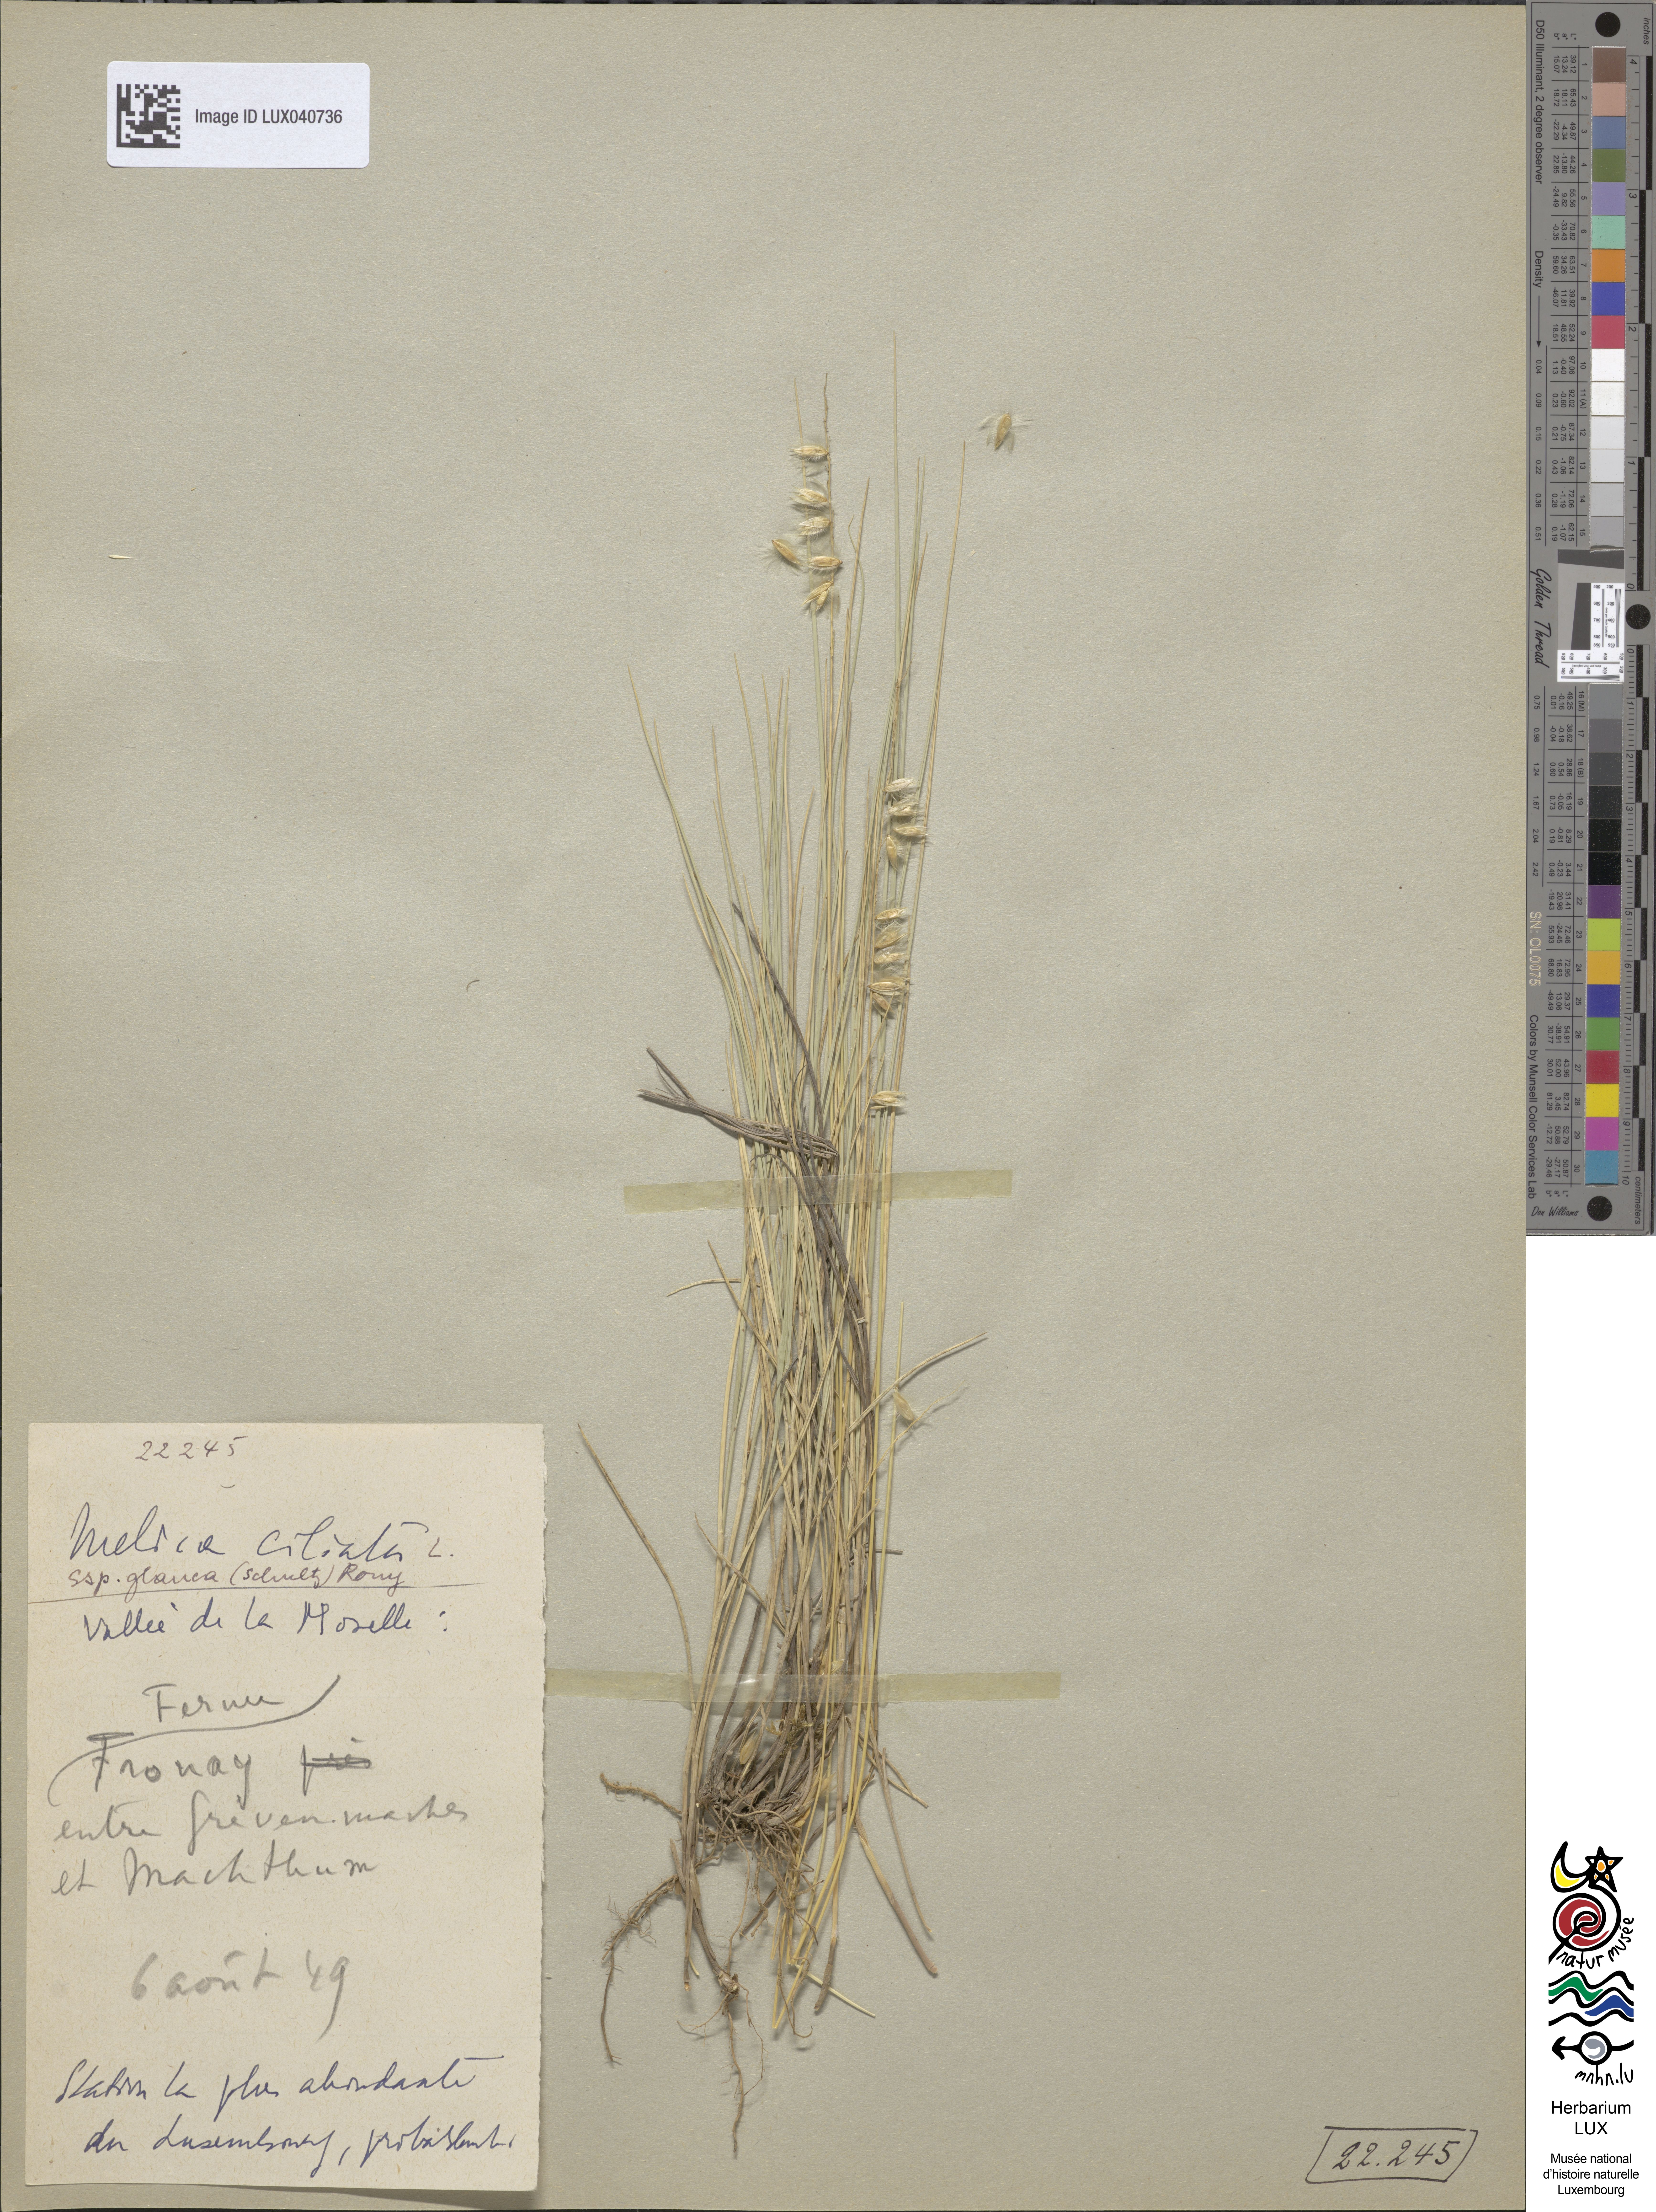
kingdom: Plantae
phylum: Tracheophyta
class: Liliopsida
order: Poales
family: Poaceae
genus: Melica
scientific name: Melica ciliata
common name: Hairy melicgrass
